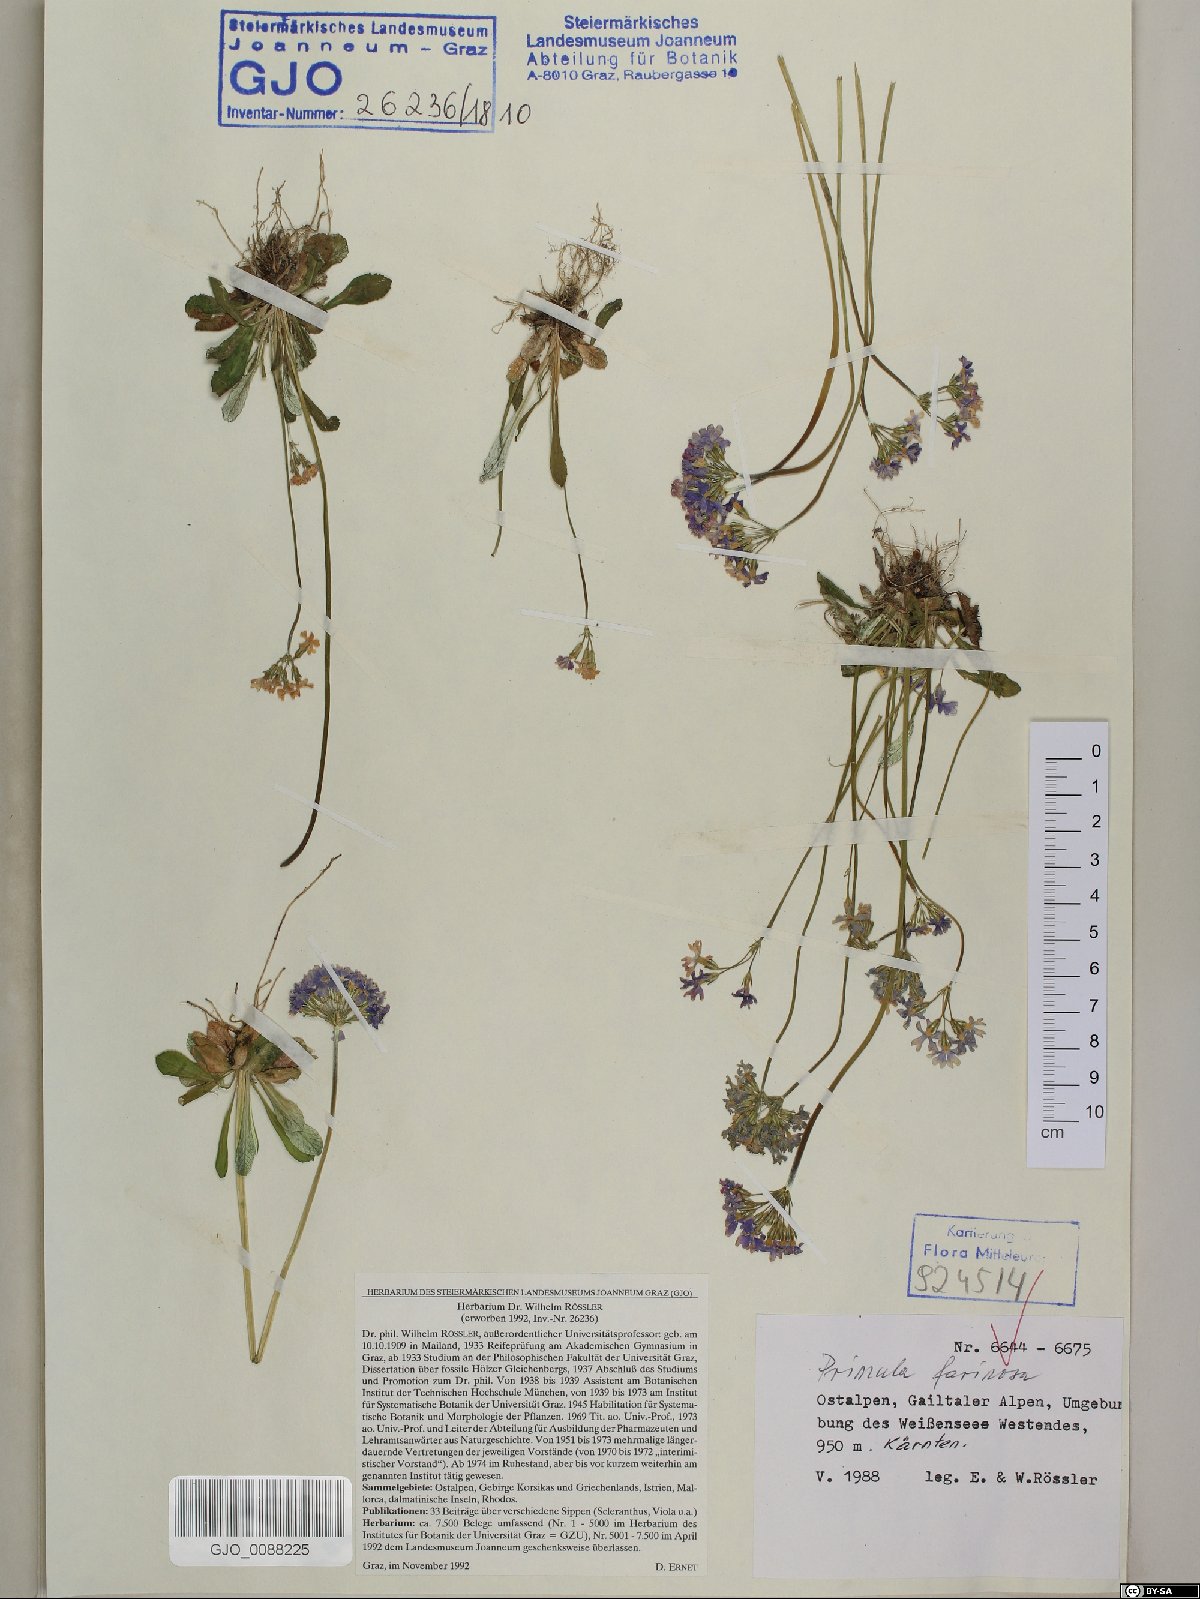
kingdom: Plantae
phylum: Tracheophyta
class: Magnoliopsida
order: Ericales
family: Primulaceae
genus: Primula
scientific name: Primula farinosa
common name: Bird's-eye primrose
